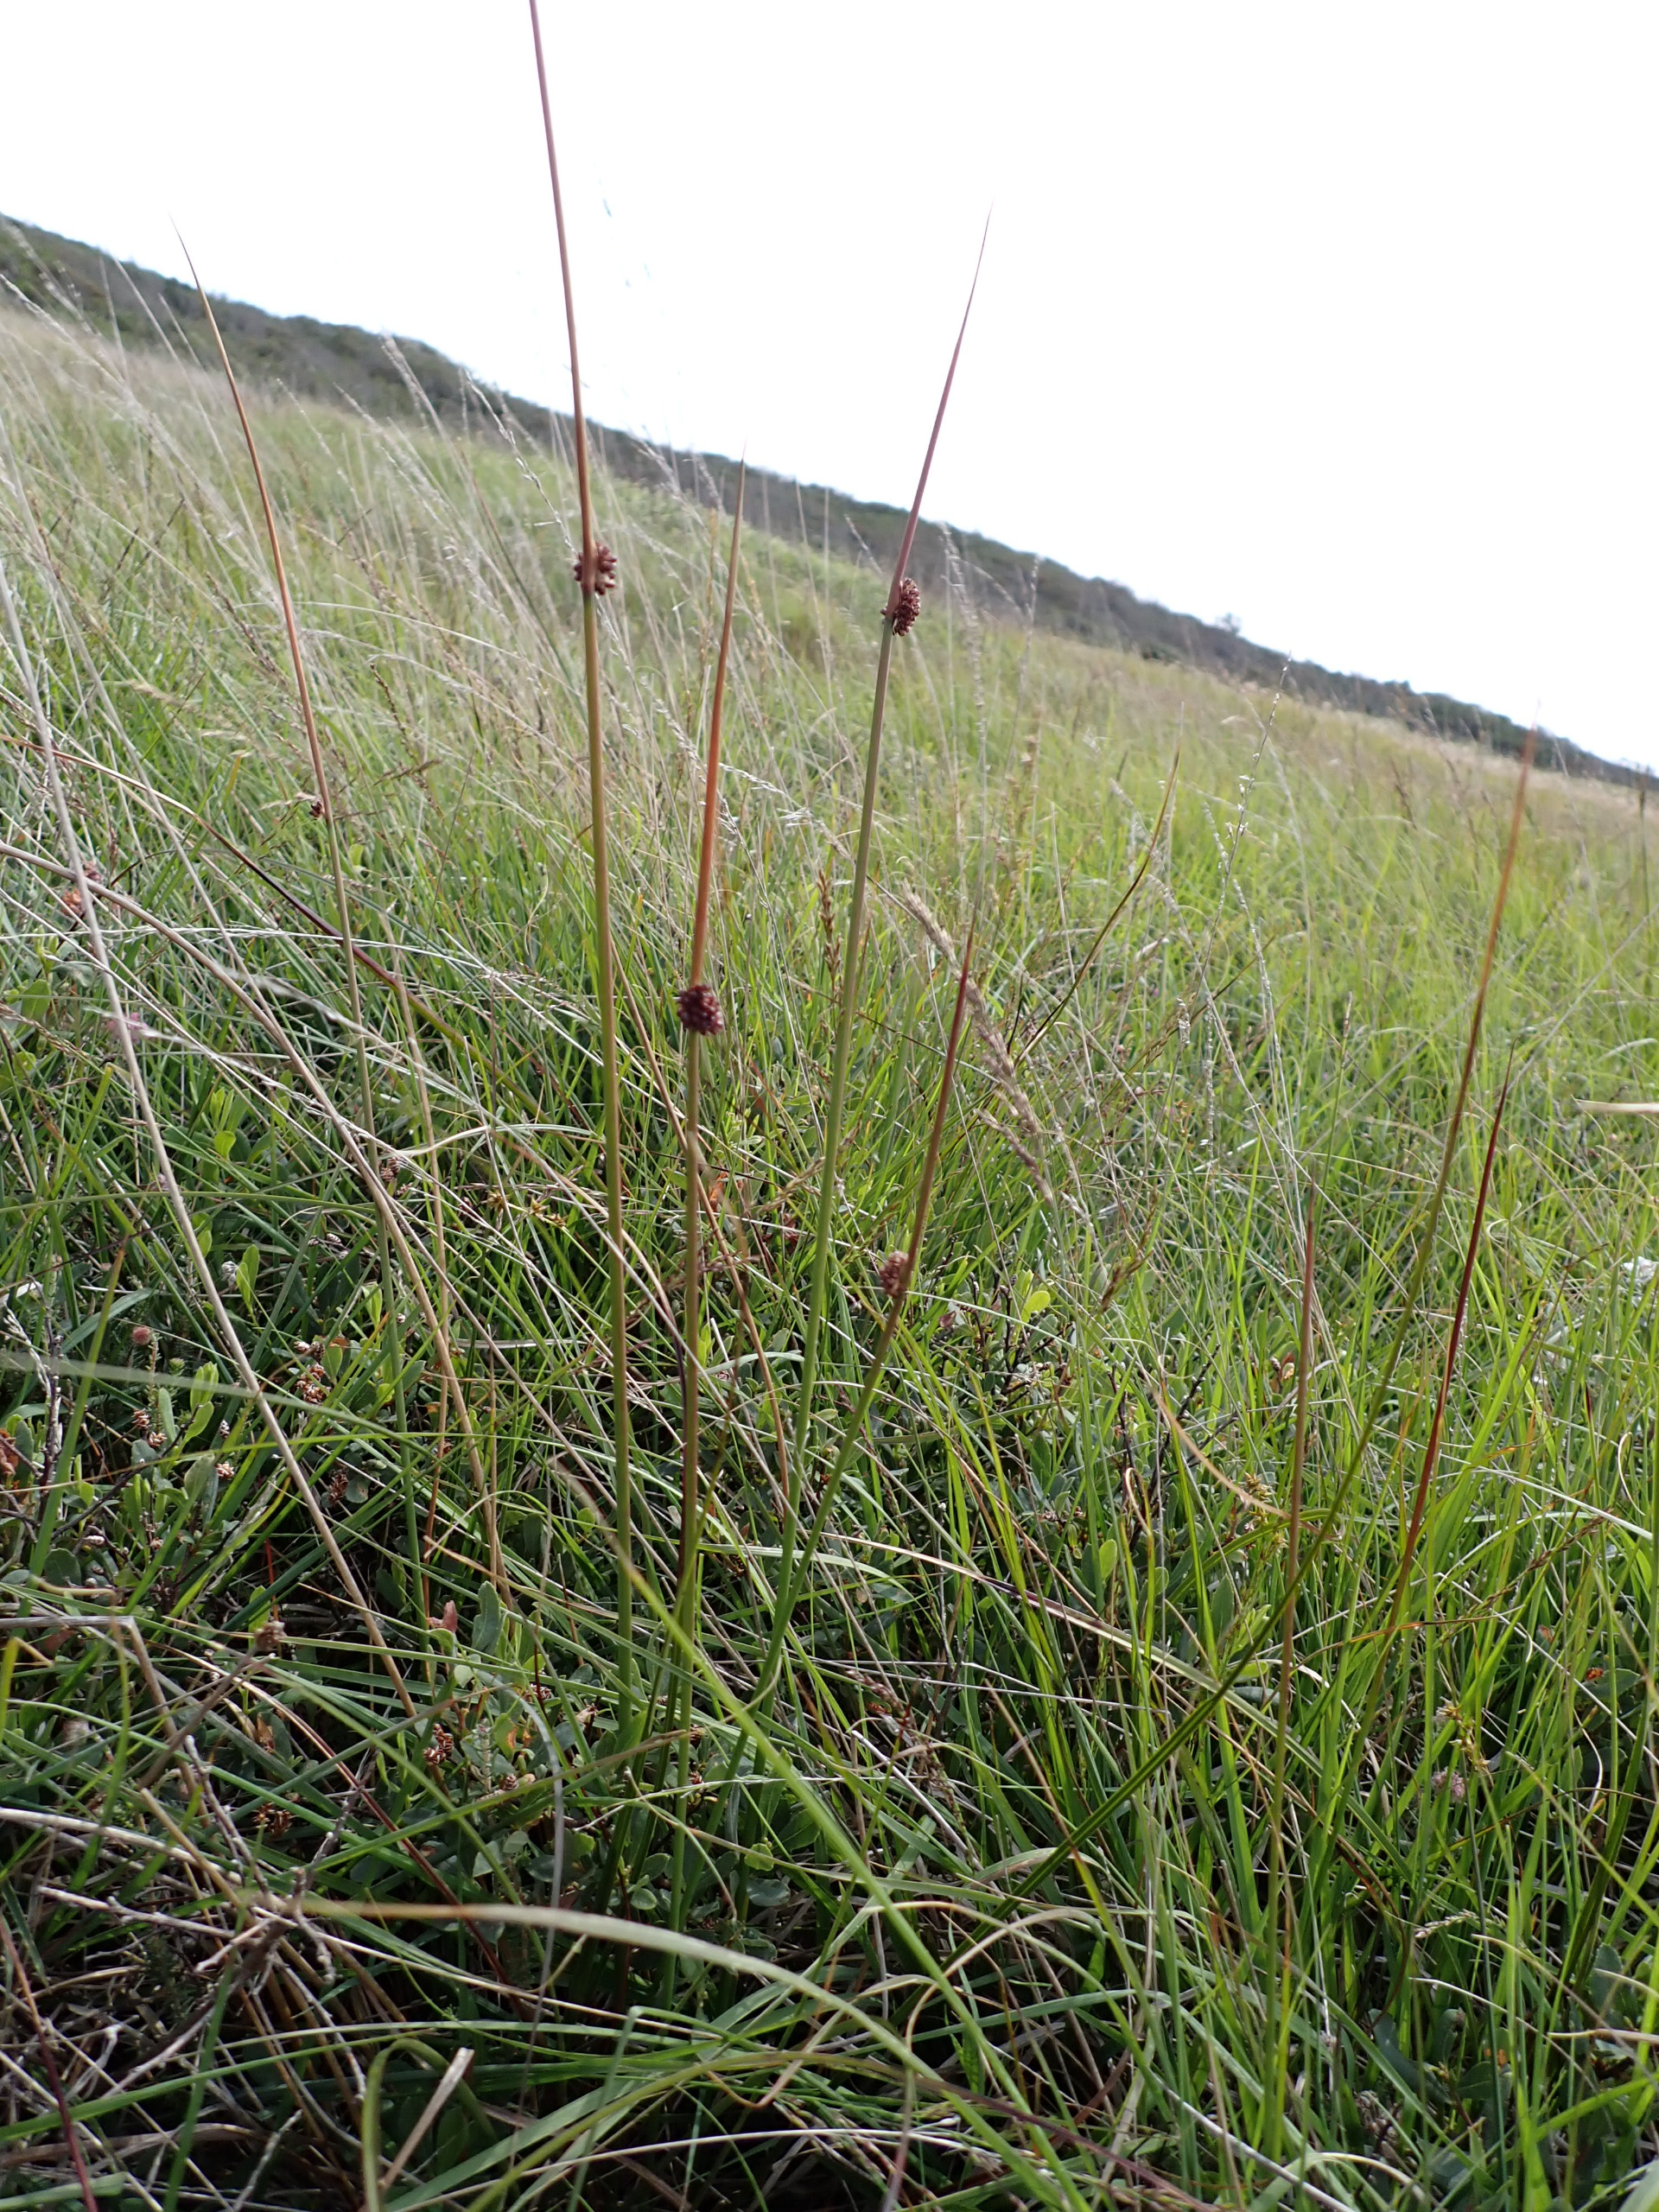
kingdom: Plantae
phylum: Tracheophyta
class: Liliopsida
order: Poales
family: Juncaceae
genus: Juncus
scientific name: Juncus conglomeratus
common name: Knop-siv
